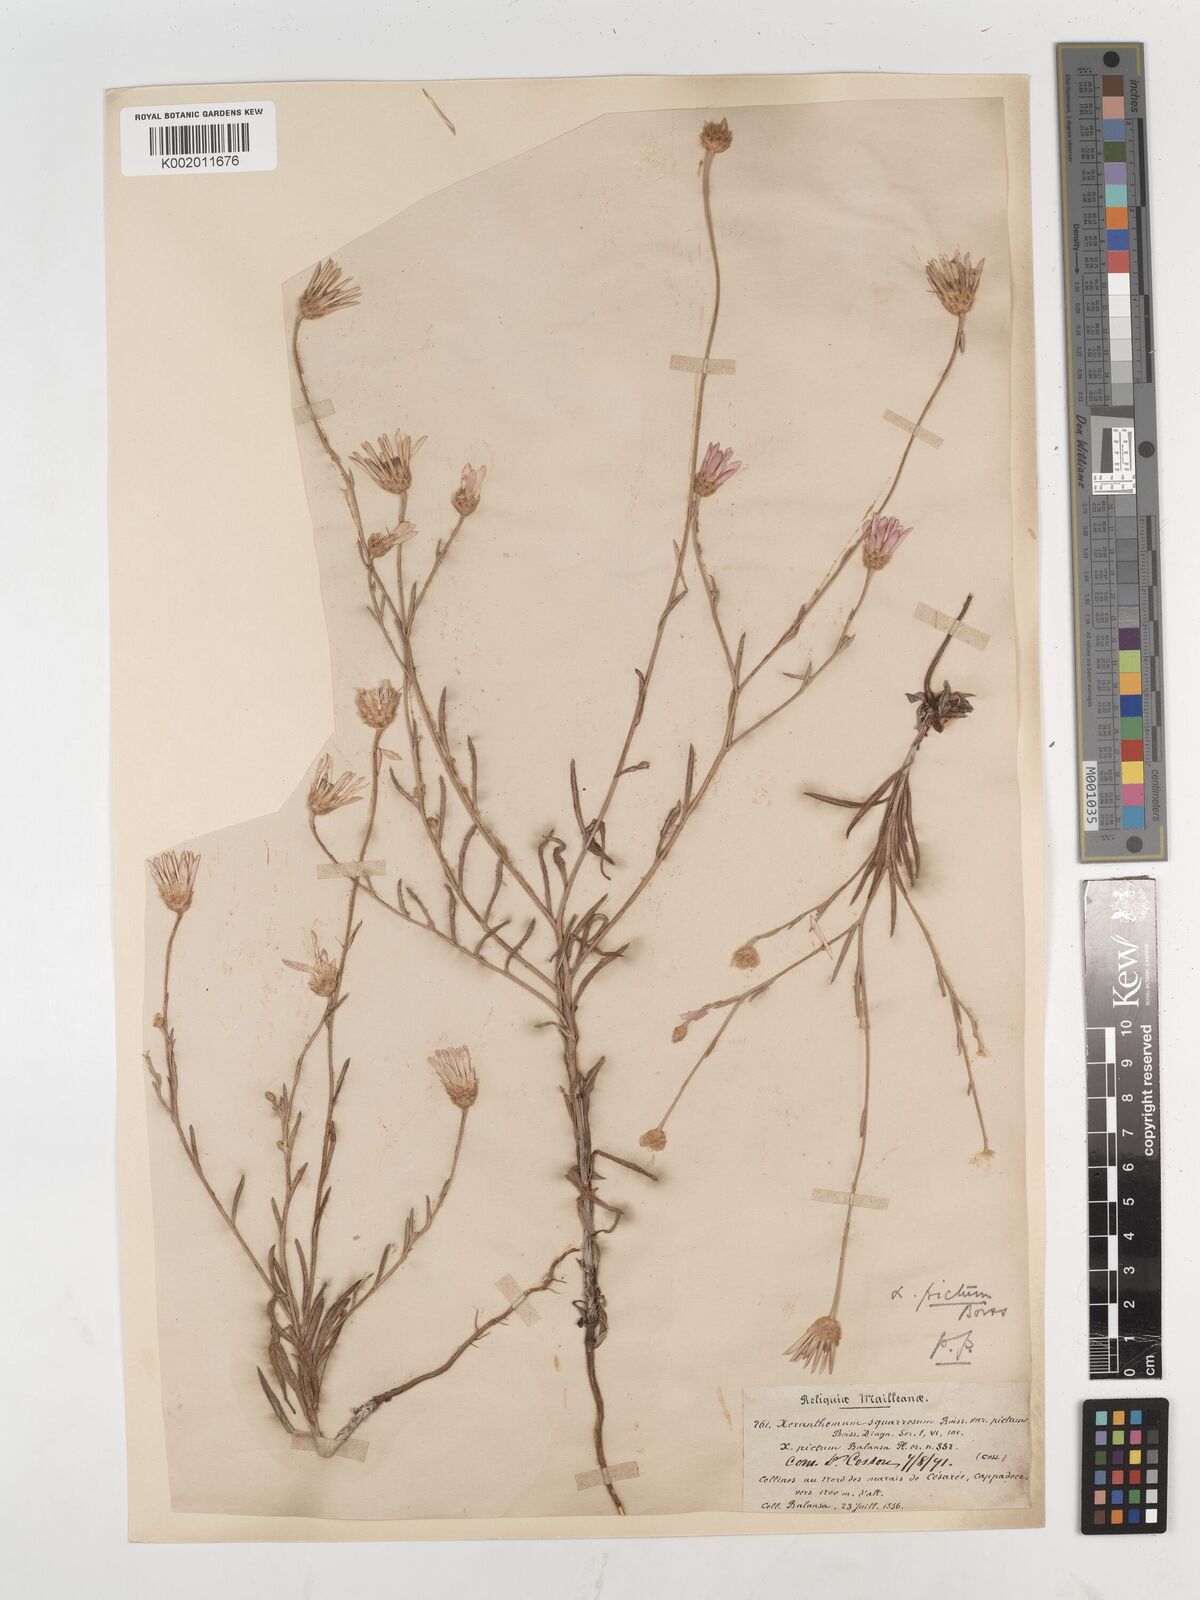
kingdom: Plantae
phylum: Tracheophyta
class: Magnoliopsida
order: Asterales
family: Asteraceae
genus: Xeranthemum
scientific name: Xeranthemum squarrosum
